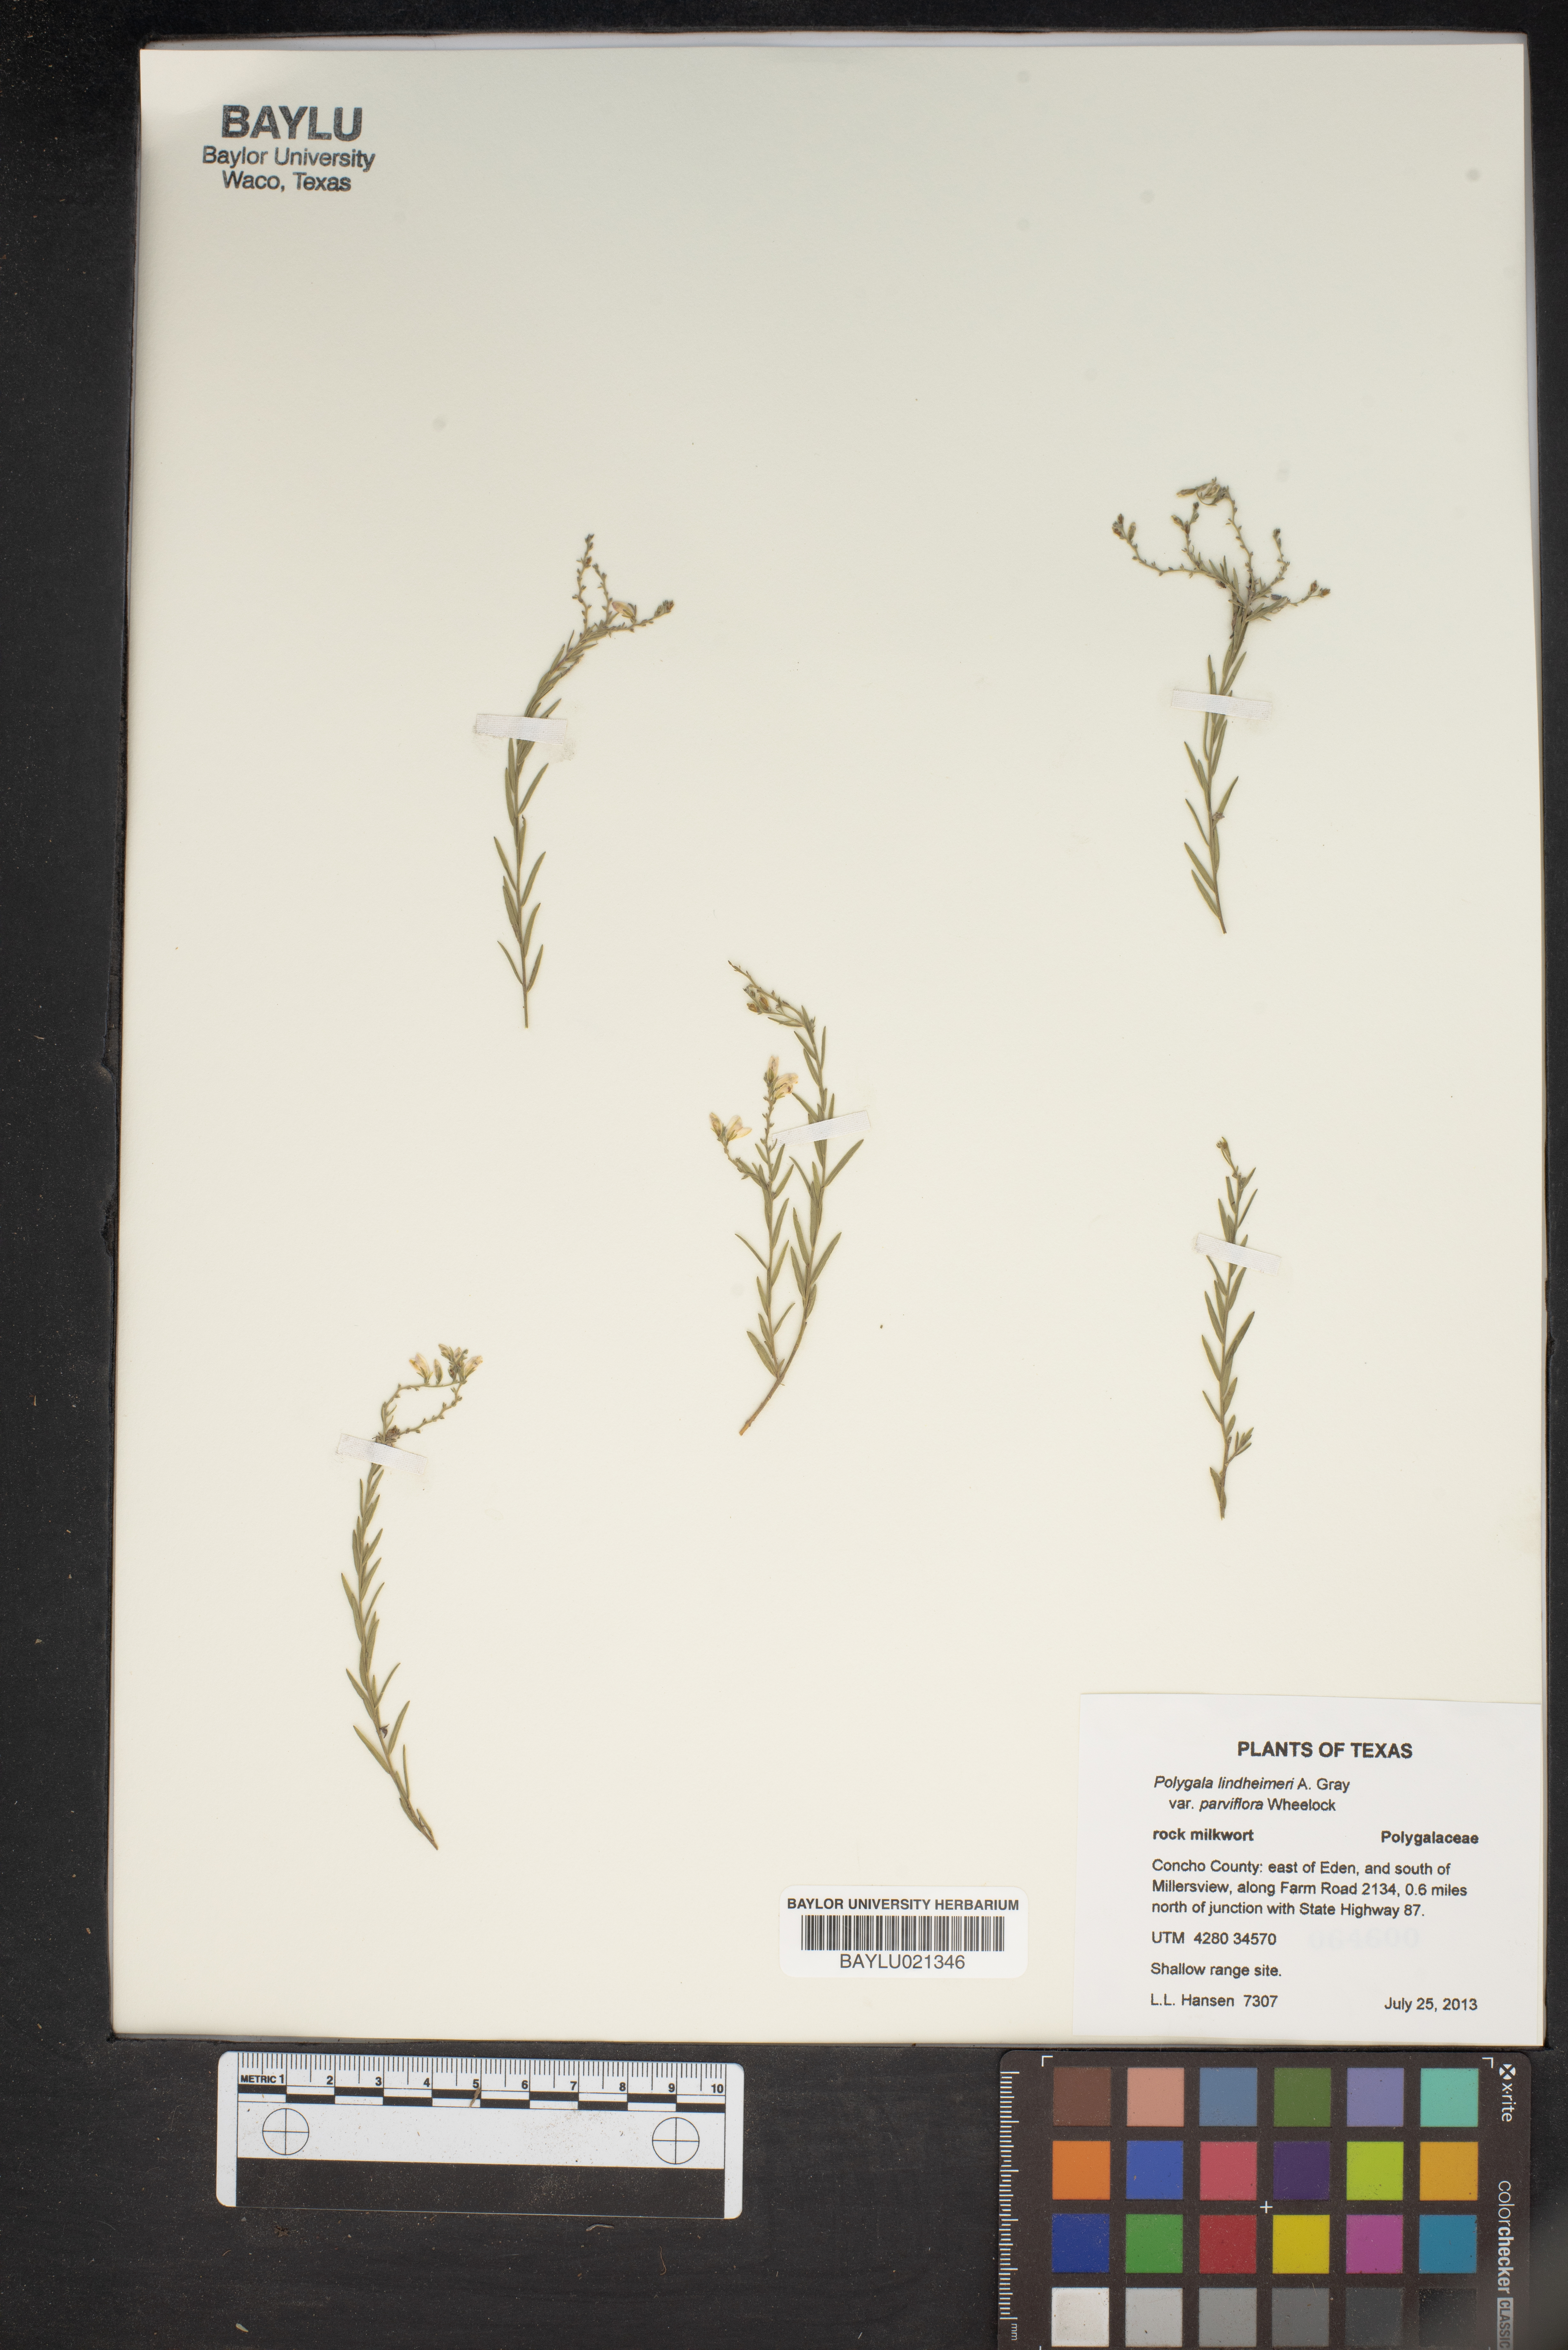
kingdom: Plantae
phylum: Tracheophyta
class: Magnoliopsida
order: Fabales
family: Polygalaceae
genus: Rhinotropis
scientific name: Rhinotropis lindheimeri
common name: Shrubby milkwort
